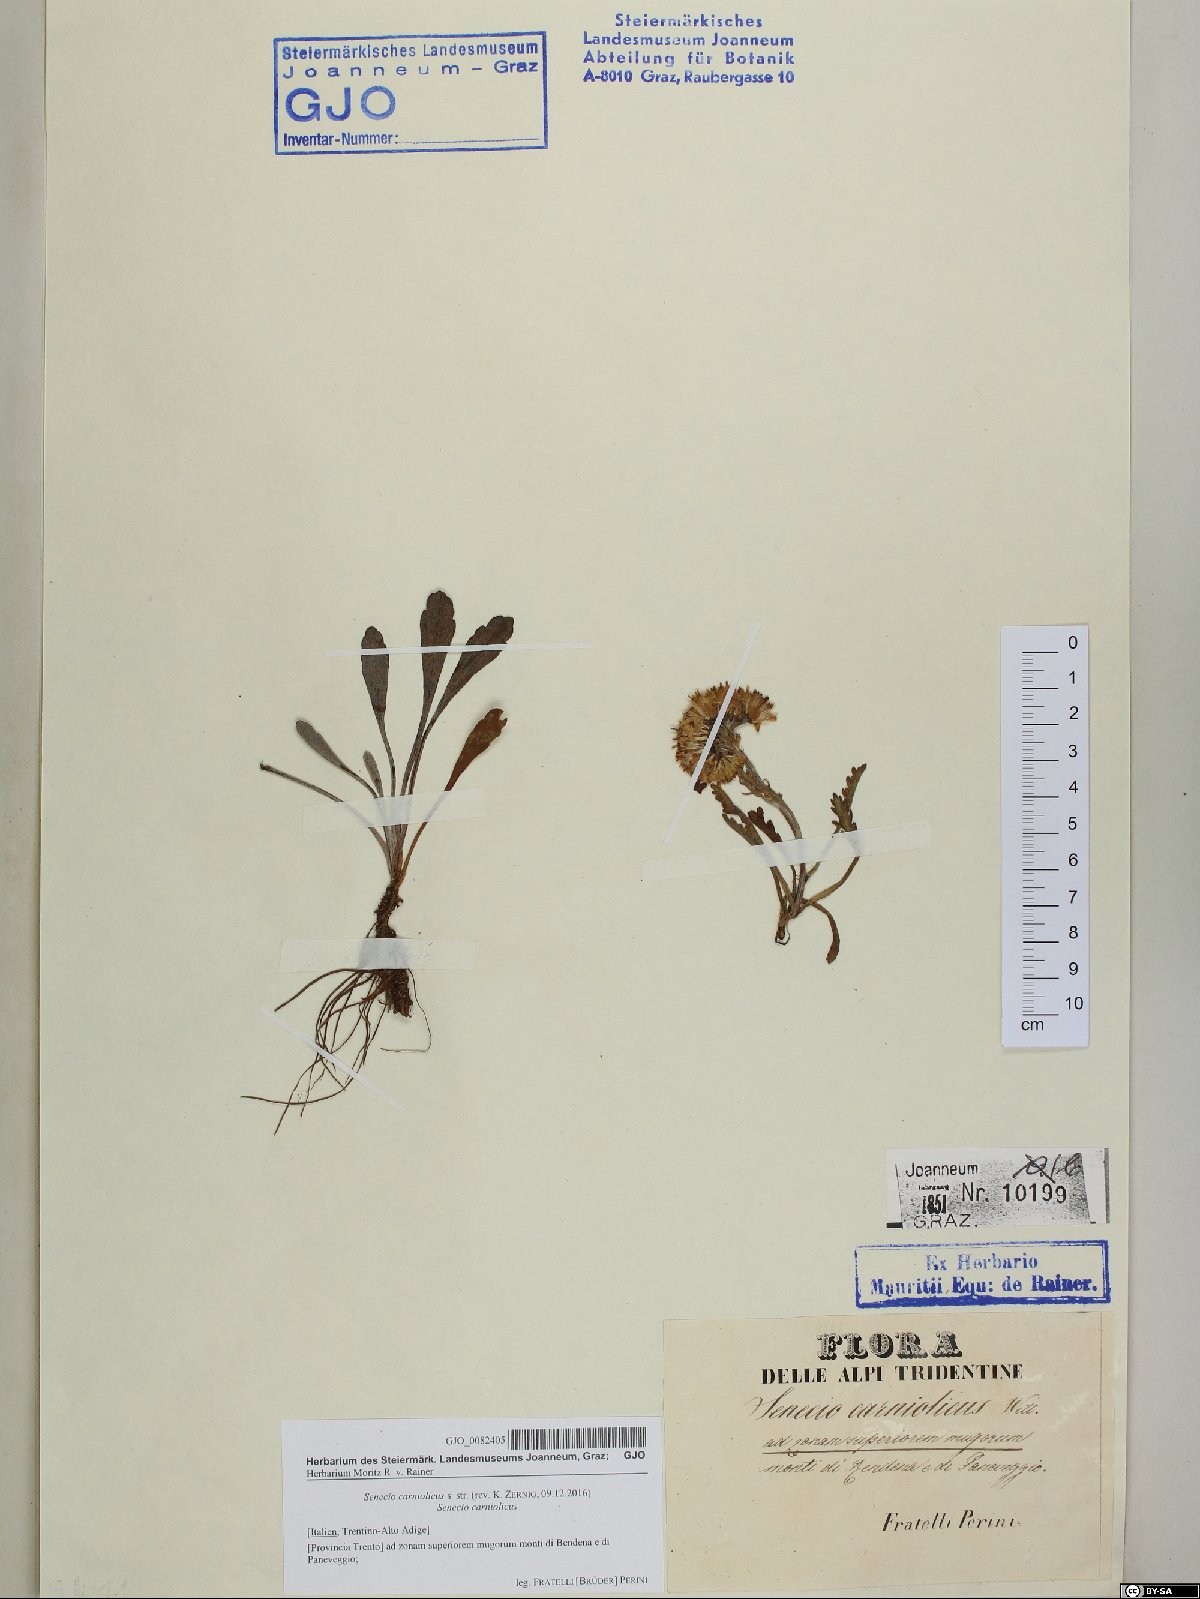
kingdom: Plantae
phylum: Tracheophyta
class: Magnoliopsida
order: Asterales
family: Asteraceae
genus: Jacobaea
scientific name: Jacobaea carniolica
